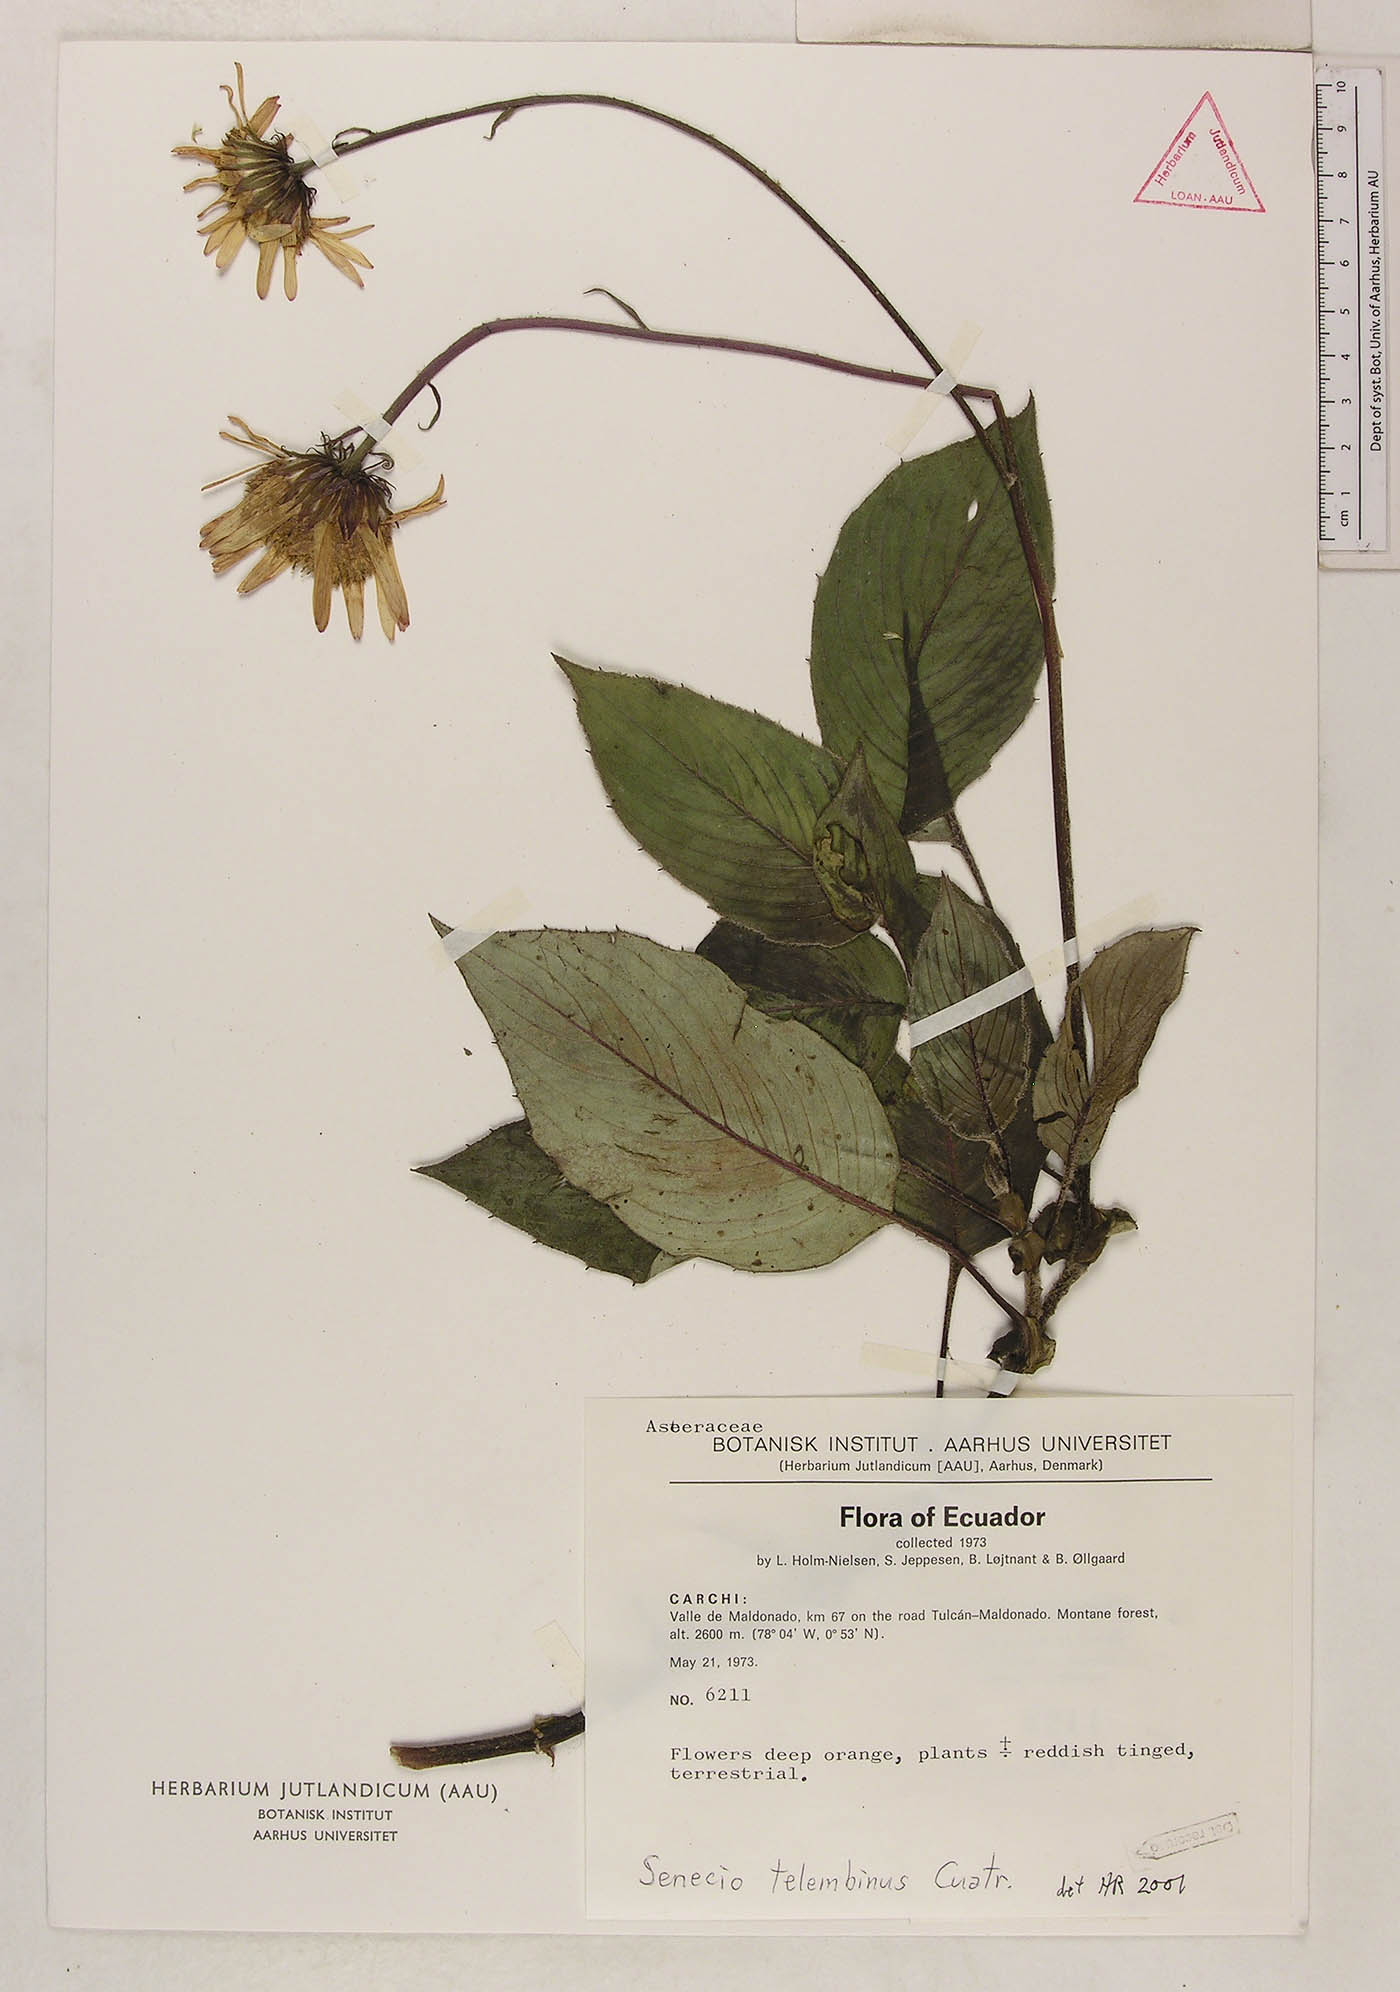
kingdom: Plantae
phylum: Tracheophyta
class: Magnoliopsida
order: Asterales
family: Asteraceae
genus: Garcibarrigoa
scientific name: Garcibarrigoa telembina
